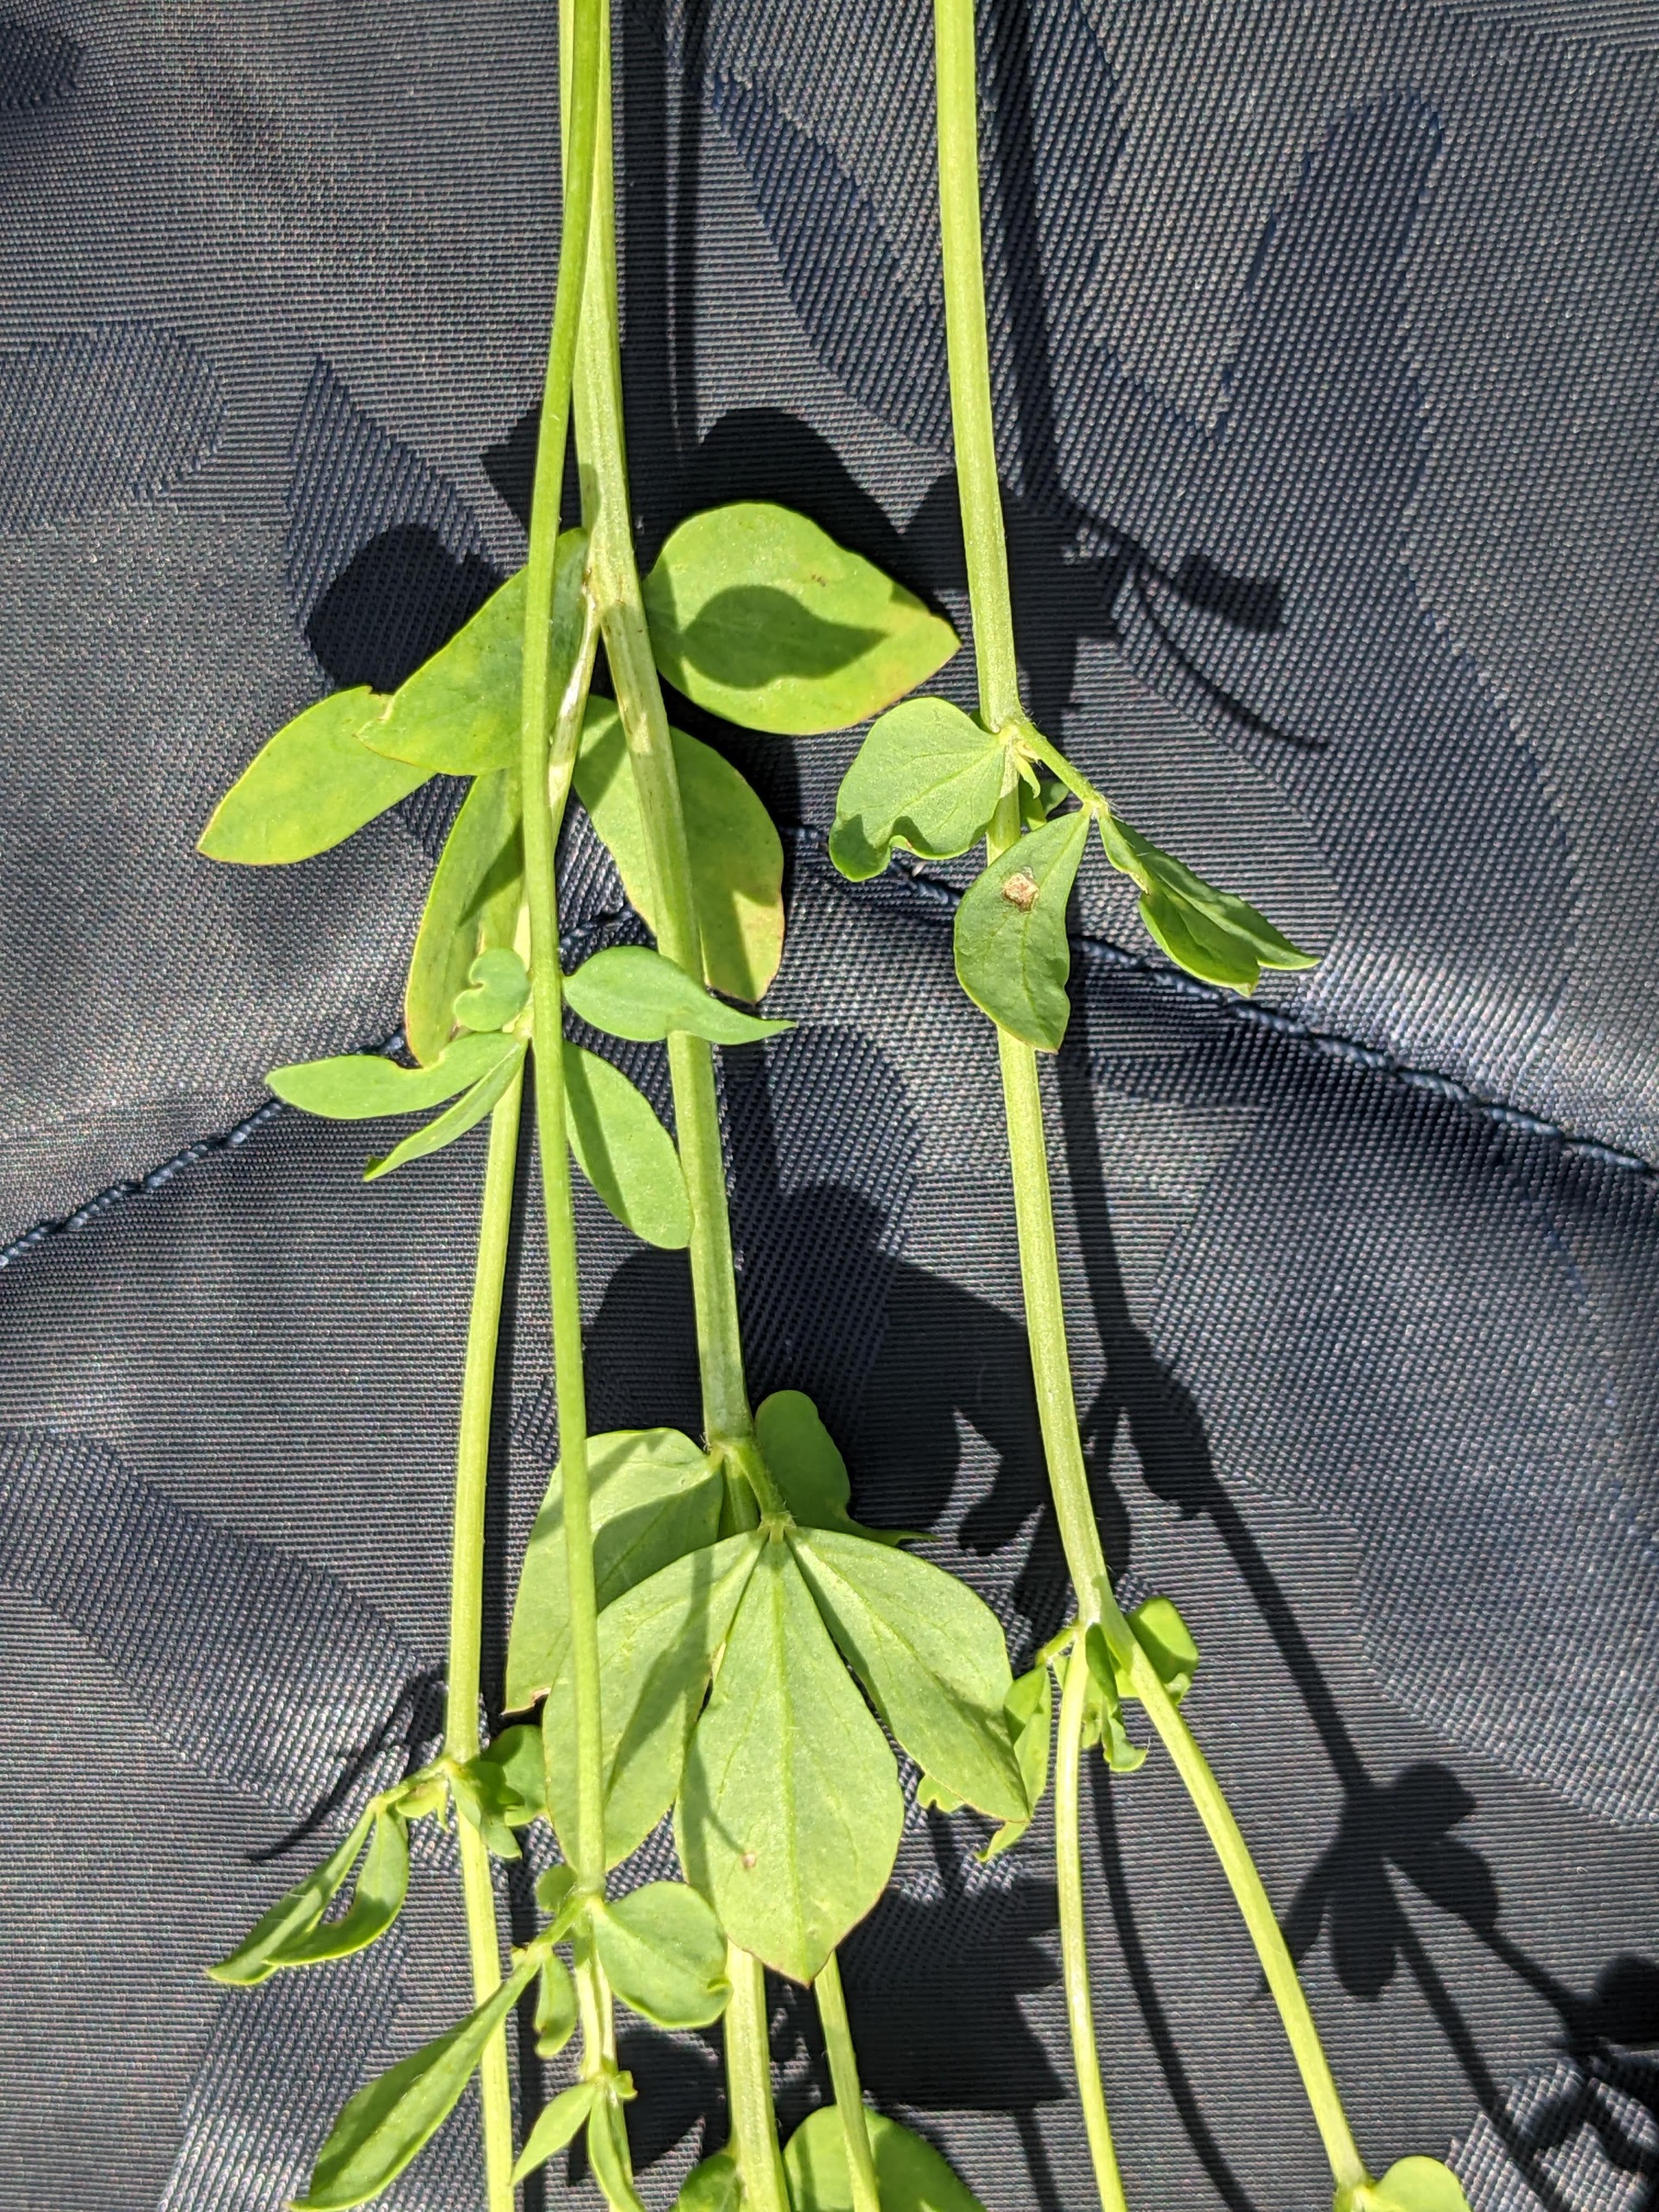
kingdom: Plantae
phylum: Tracheophyta
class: Magnoliopsida
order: Fabales
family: Fabaceae
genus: Lotus
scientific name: Lotus corniculatus
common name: Foder-kællingetand
